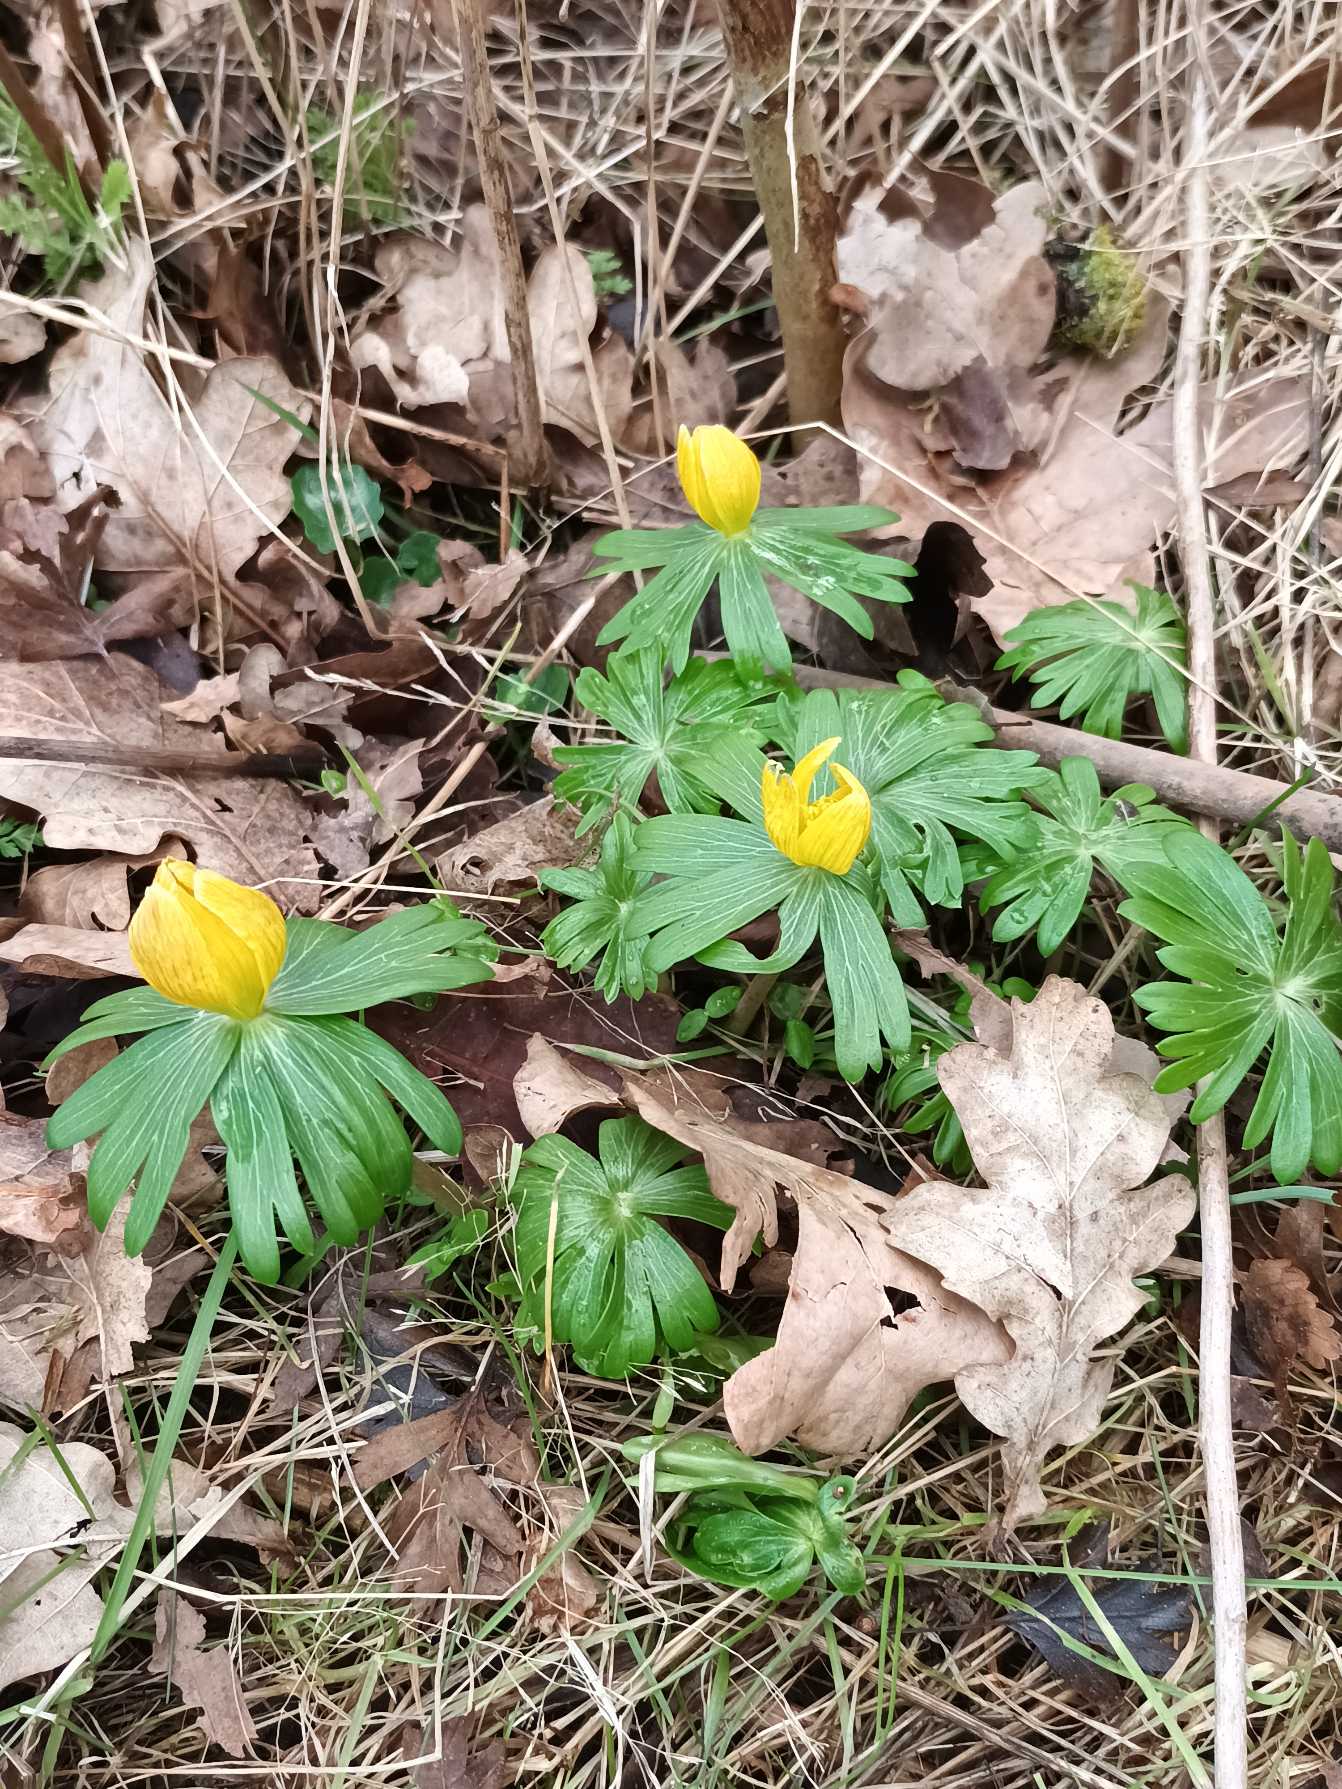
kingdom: Plantae
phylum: Tracheophyta
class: Magnoliopsida
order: Ranunculales
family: Ranunculaceae
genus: Eranthis
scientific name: Eranthis hyemalis
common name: Erantis
